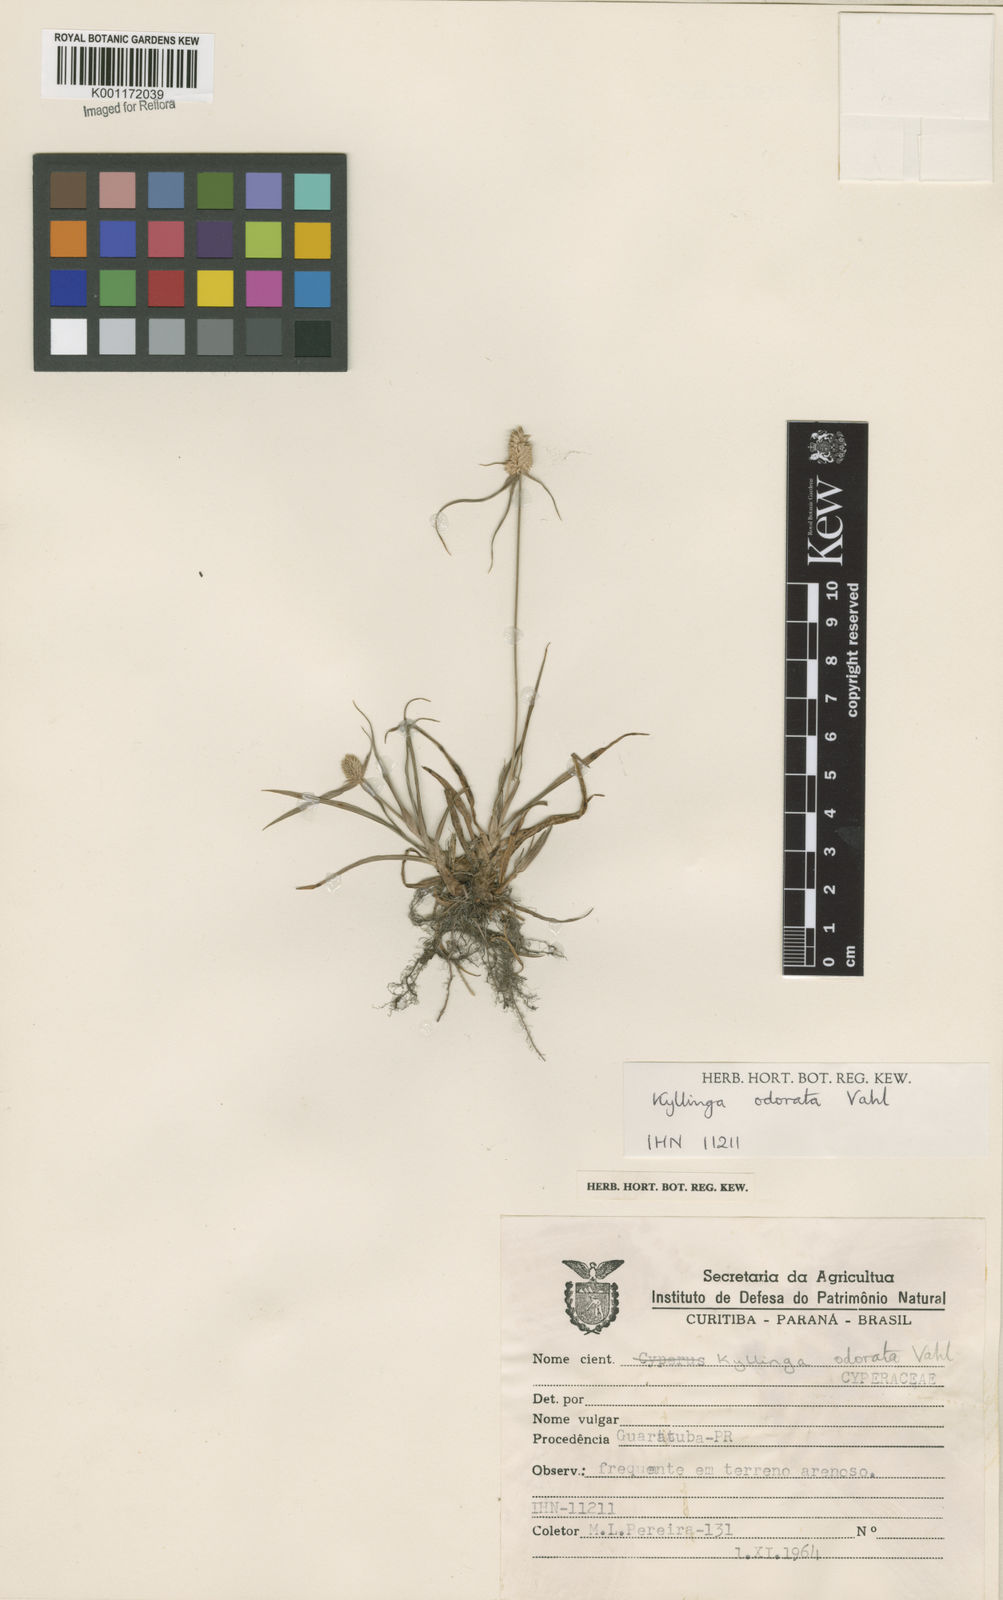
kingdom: Plantae
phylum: Tracheophyta
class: Liliopsida
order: Poales
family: Cyperaceae
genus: Cyperus
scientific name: Cyperus
